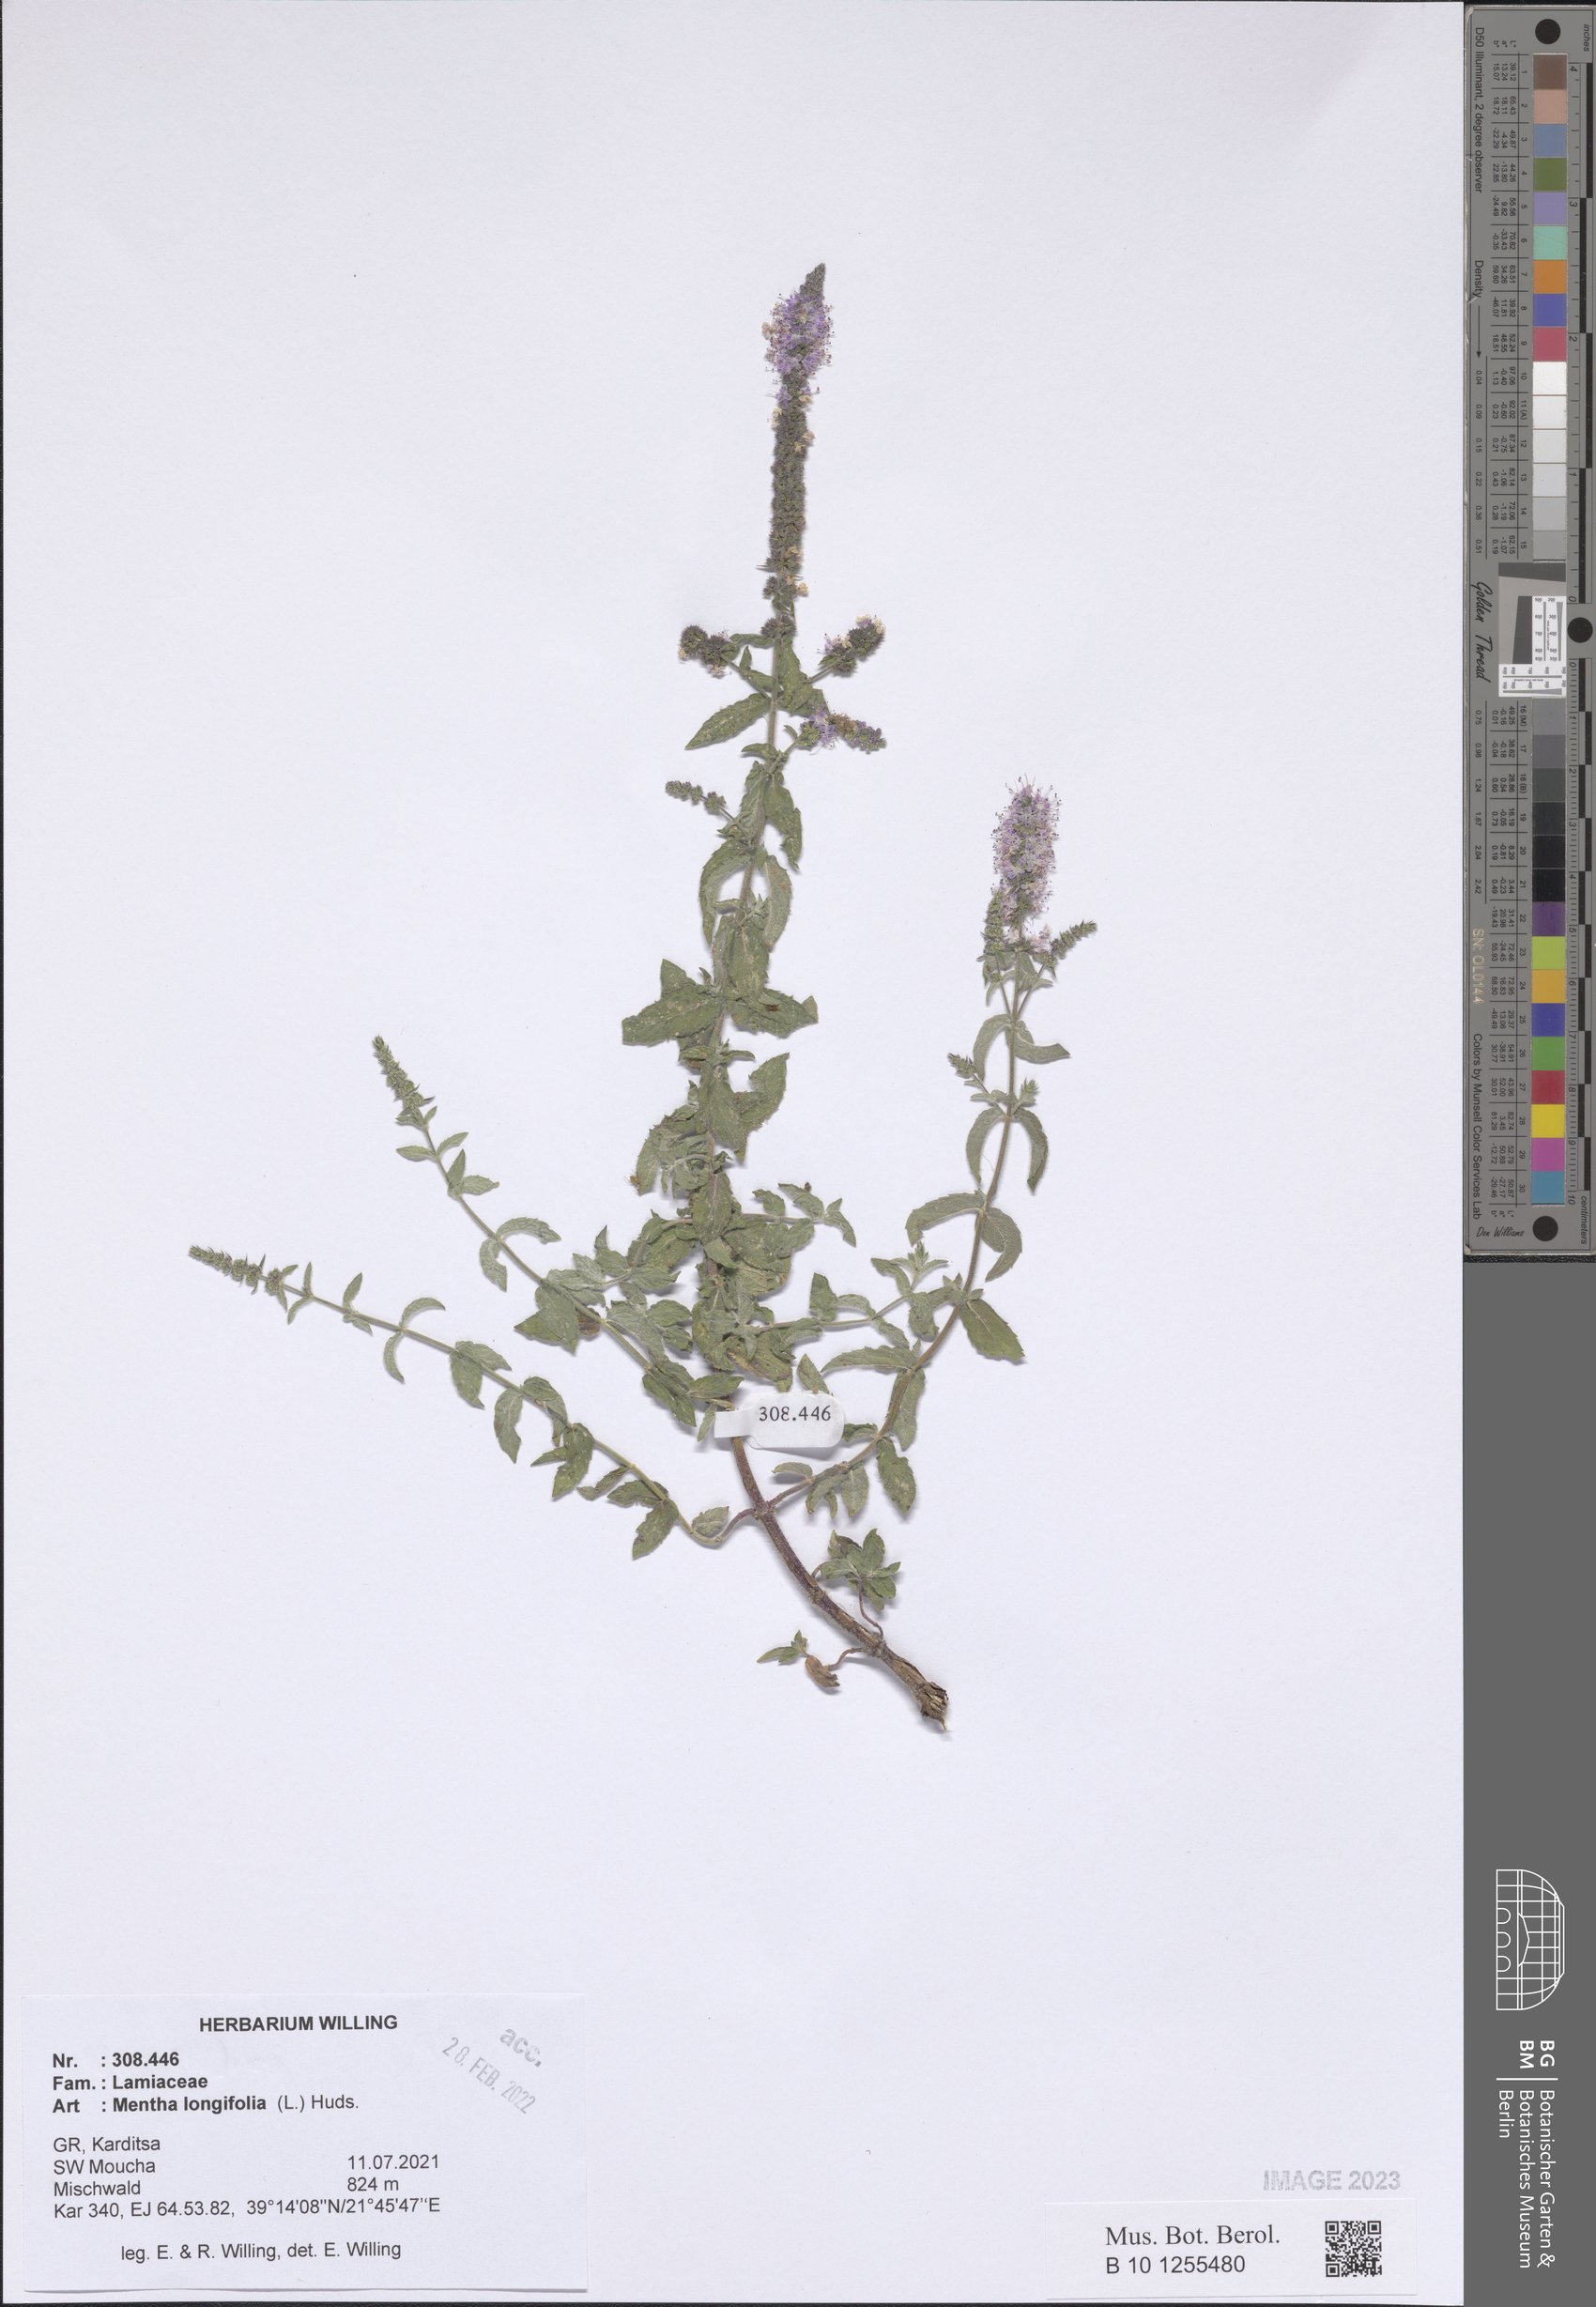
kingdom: Plantae
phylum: Tracheophyta
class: Magnoliopsida
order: Lamiales
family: Lamiaceae
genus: Mentha
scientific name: Mentha longifolia
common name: Horse mint
